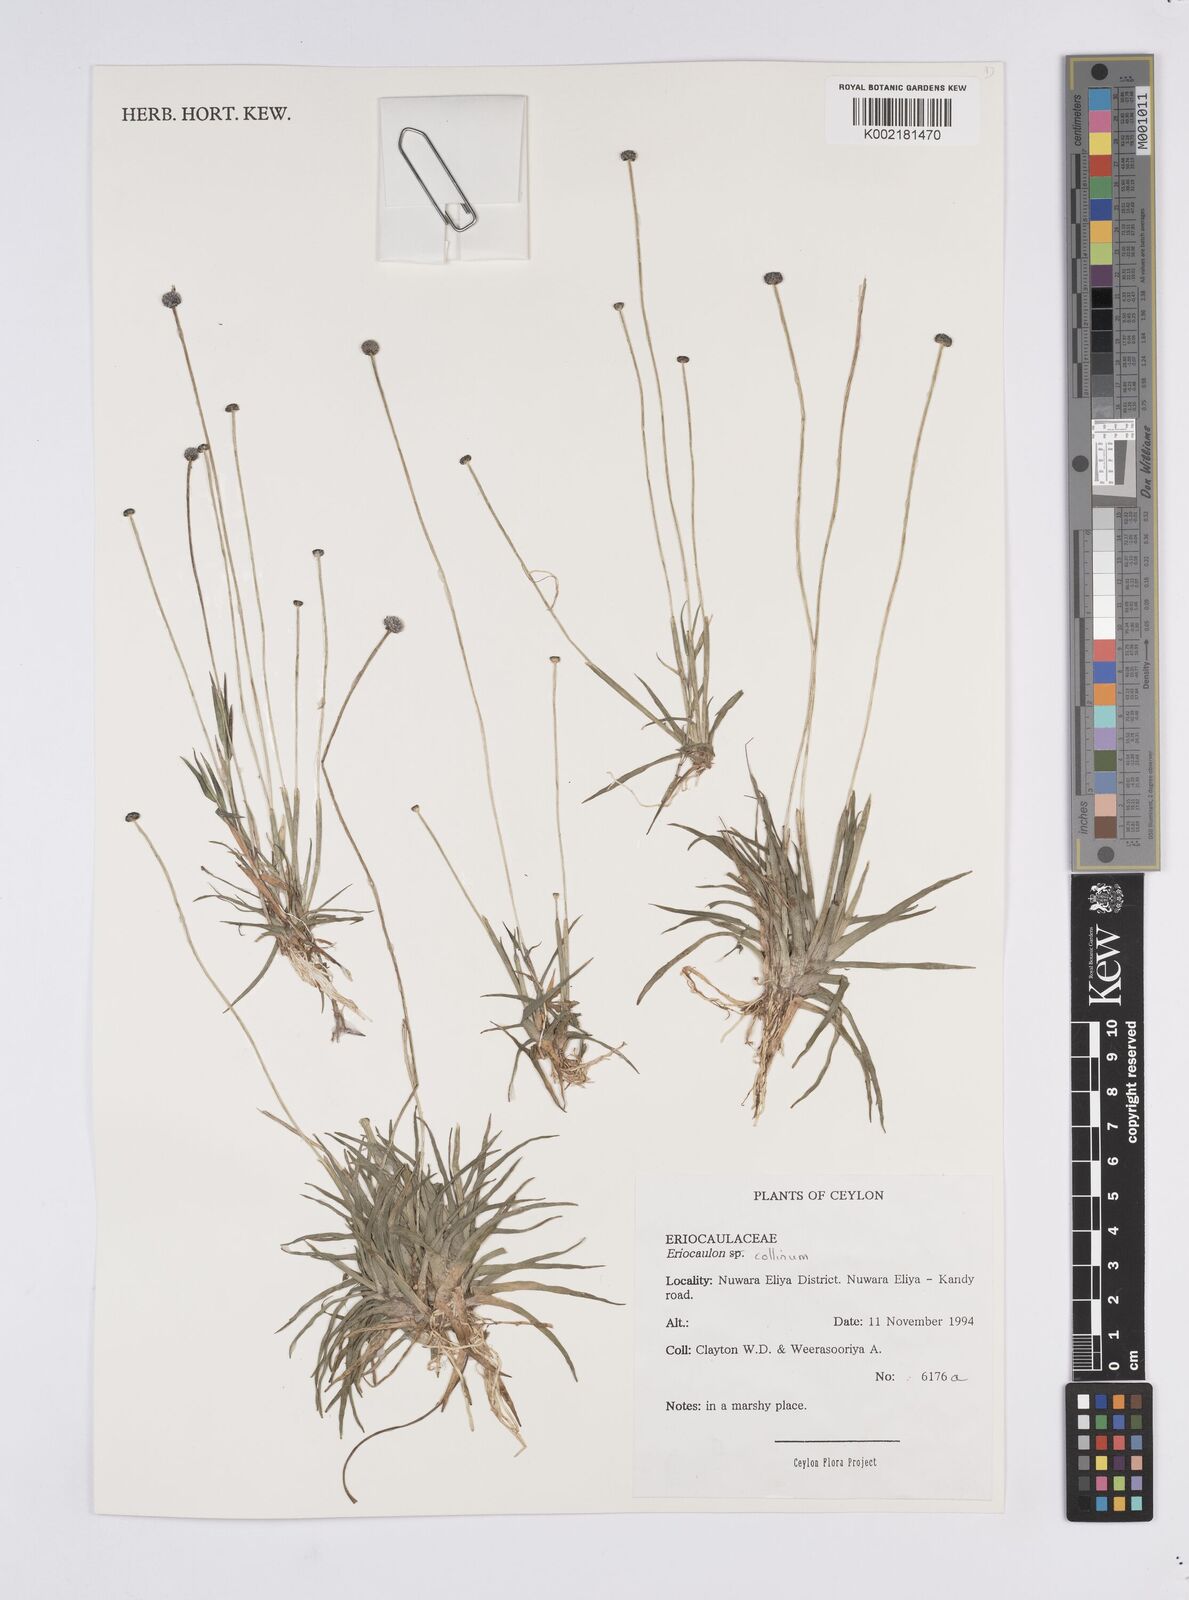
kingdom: Plantae
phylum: Tracheophyta
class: Liliopsida
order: Poales
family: Eriocaulaceae
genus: Eriocaulon
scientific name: Eriocaulon odoratum
